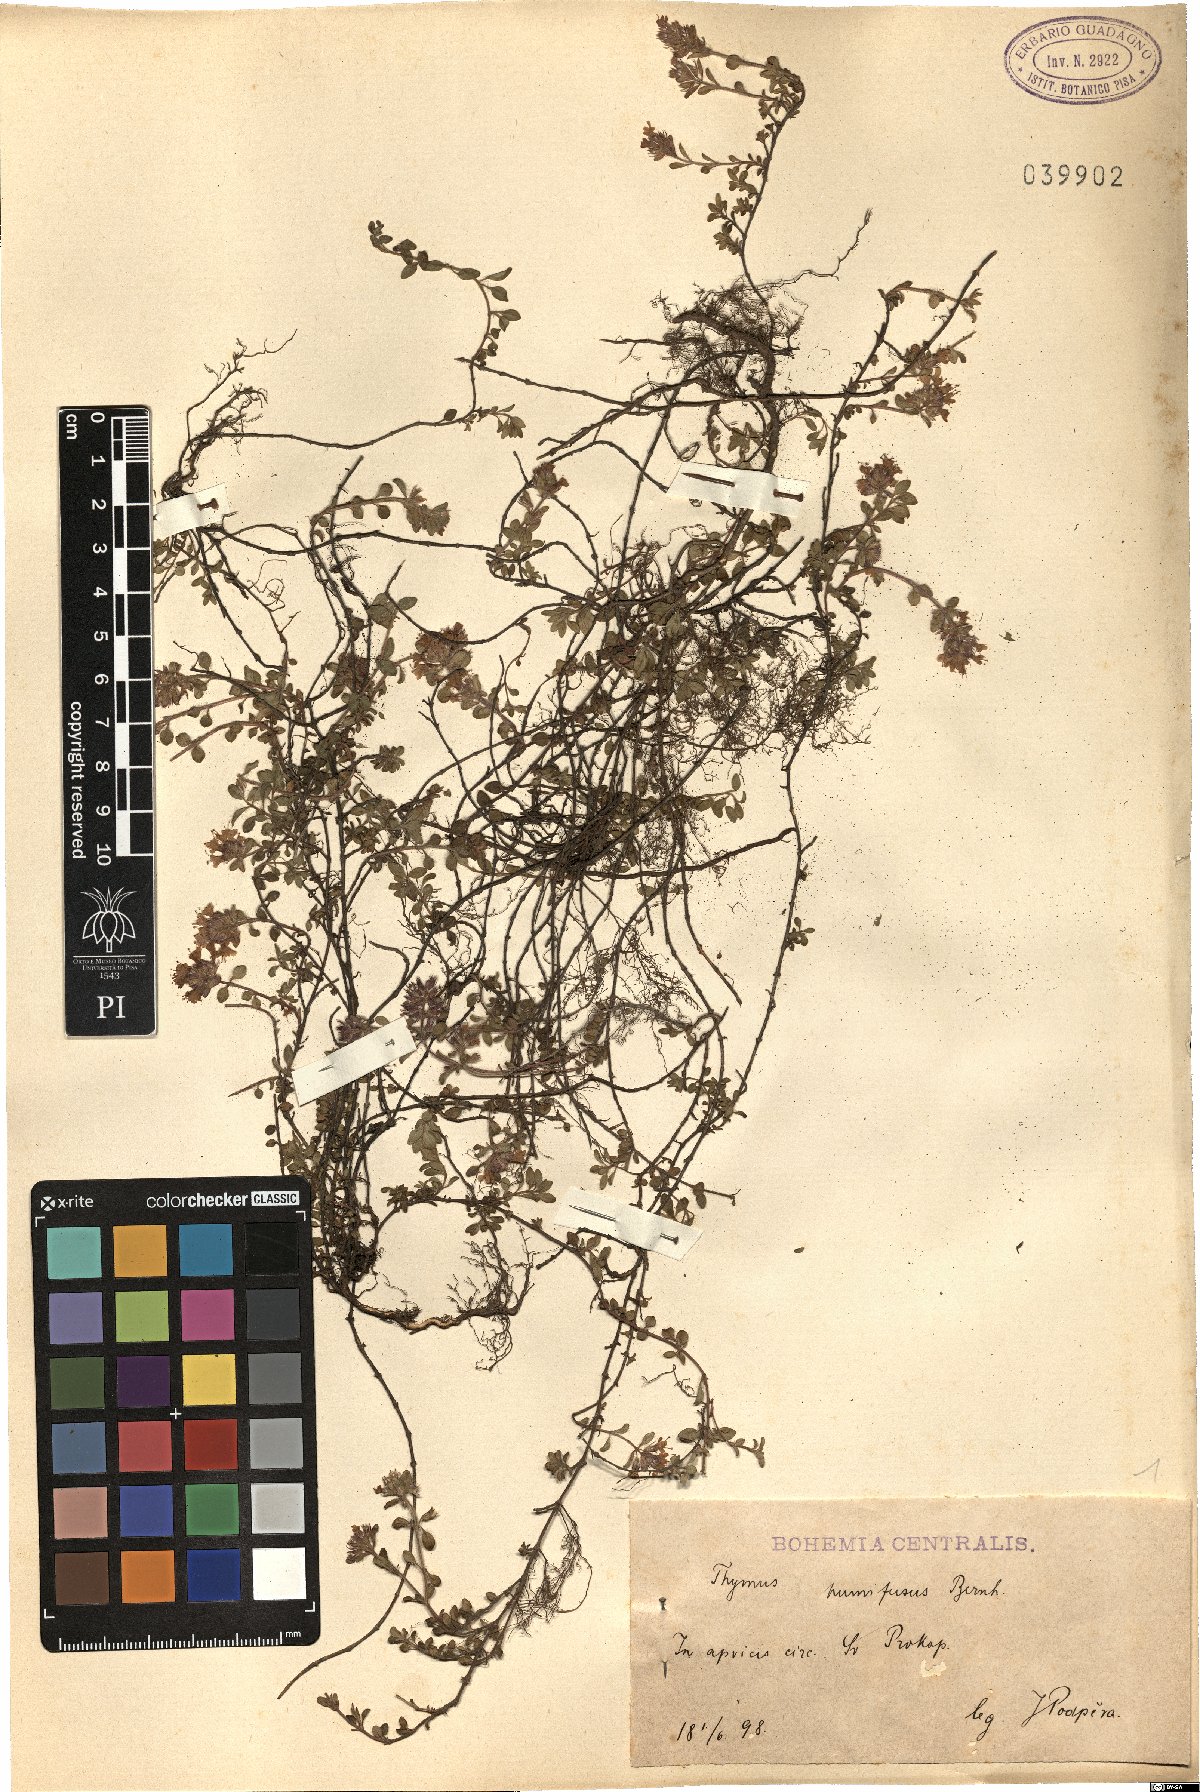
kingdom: Plantae
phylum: Tracheophyta
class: Magnoliopsida
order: Lamiales
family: Lamiaceae
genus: Thymus
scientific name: Thymus praecox
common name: Wild thyme
